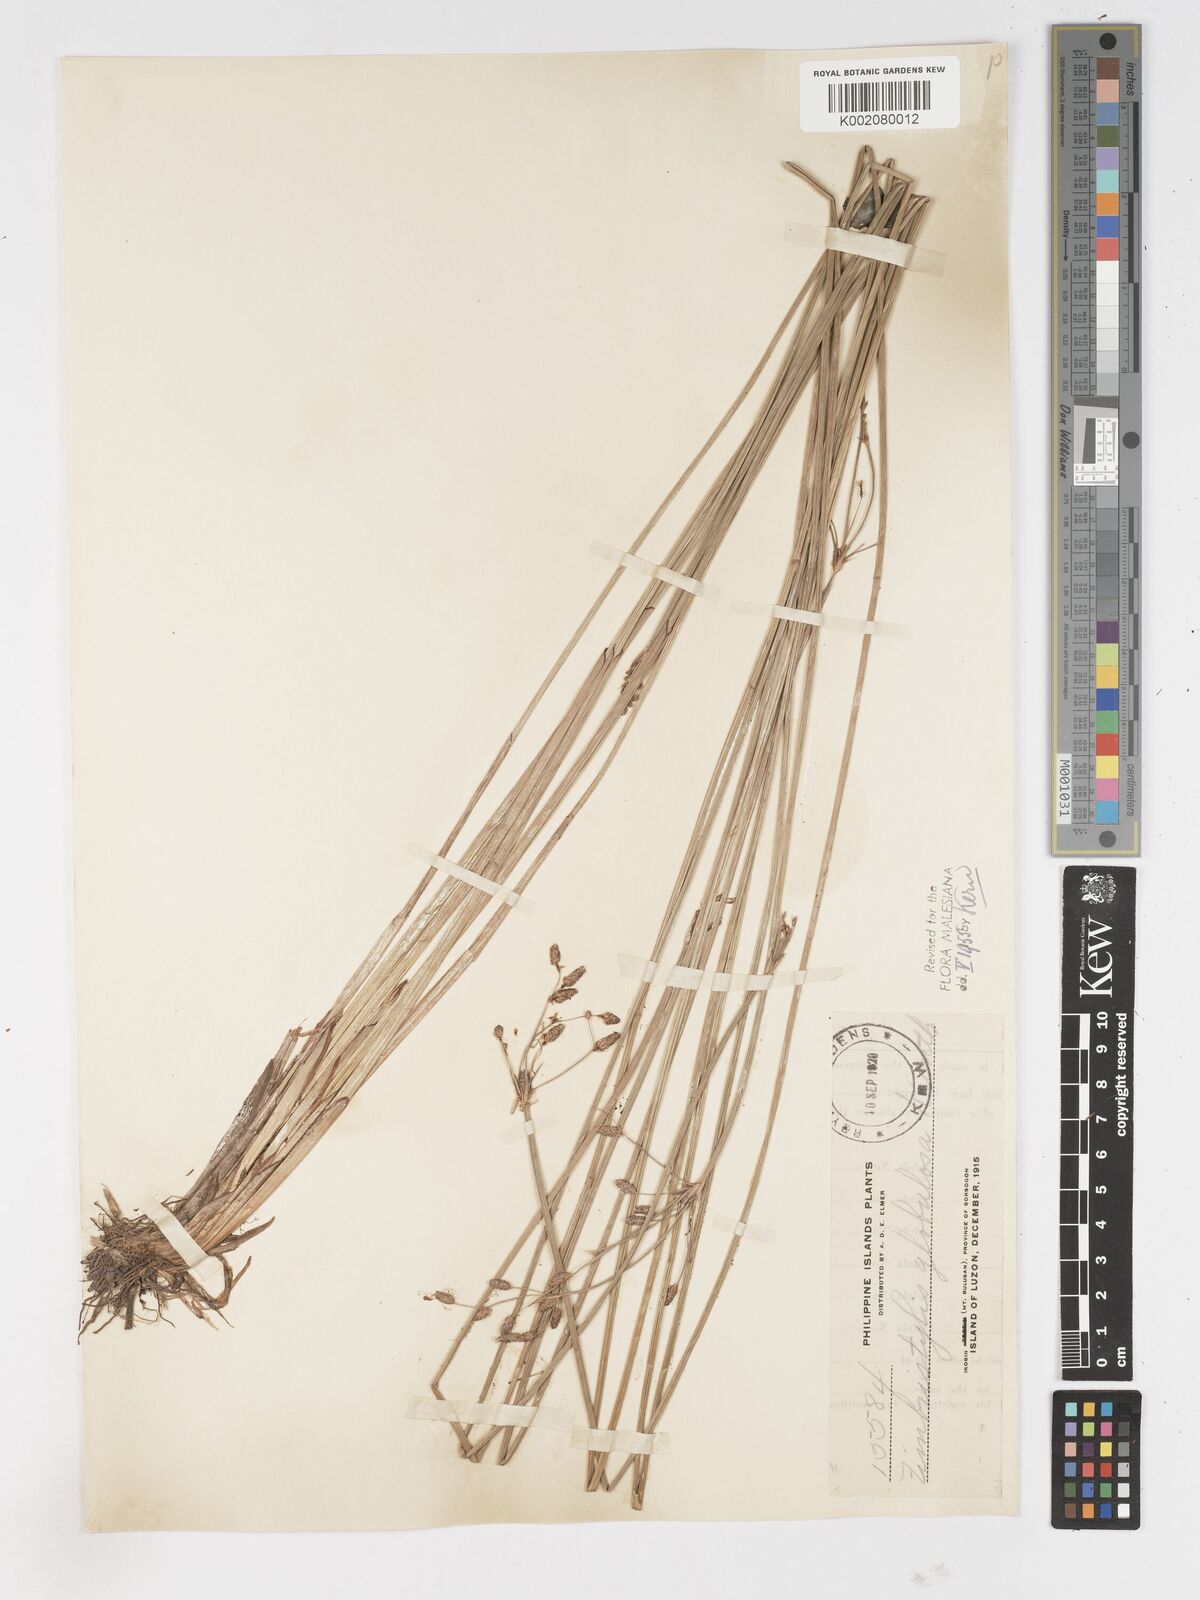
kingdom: Plantae
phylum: Tracheophyta
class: Liliopsida
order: Poales
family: Cyperaceae
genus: Fimbristylis
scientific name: Fimbristylis umbellaris
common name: Globular fimbristylis
